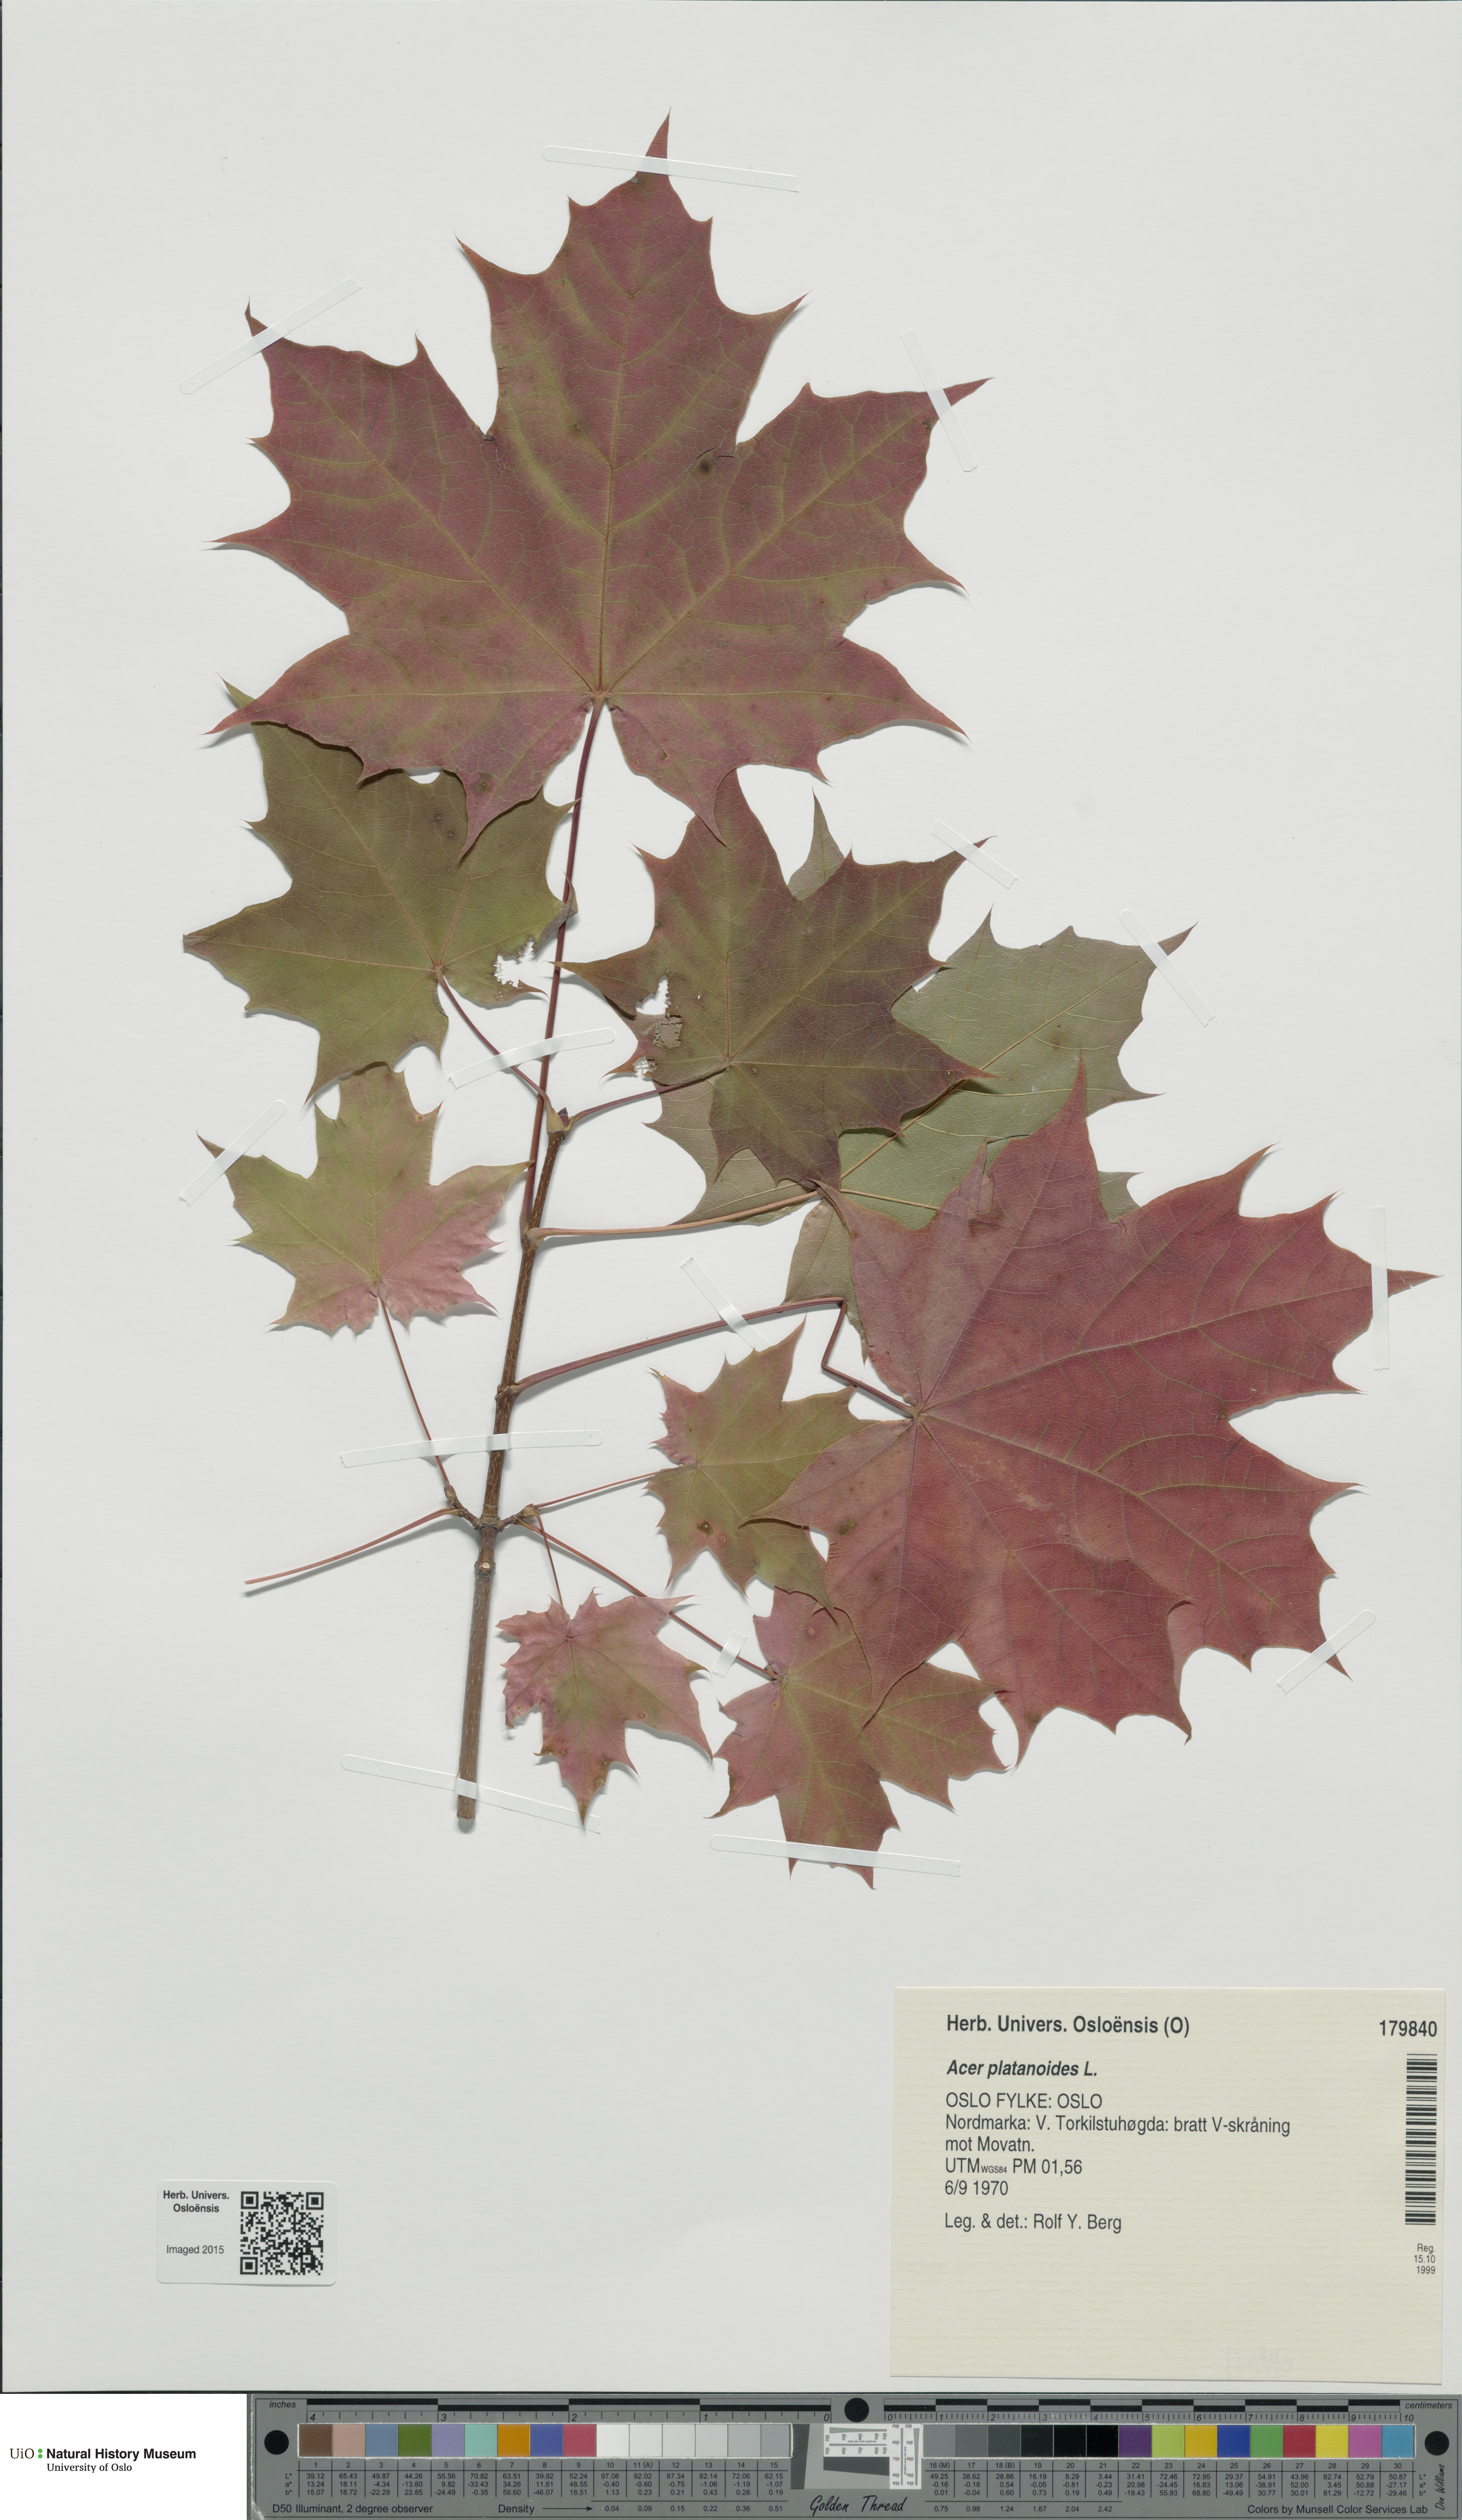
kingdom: Plantae
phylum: Tracheophyta
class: Magnoliopsida
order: Sapindales
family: Sapindaceae
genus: Acer
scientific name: Acer platanoides
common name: Norway maple
